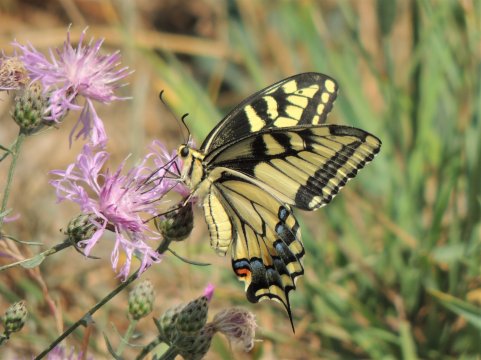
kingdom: Animalia
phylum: Arthropoda
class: Insecta
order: Lepidoptera
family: Papilionidae
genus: Papilio
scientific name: Papilio machaon
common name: Old World Swallowtail
